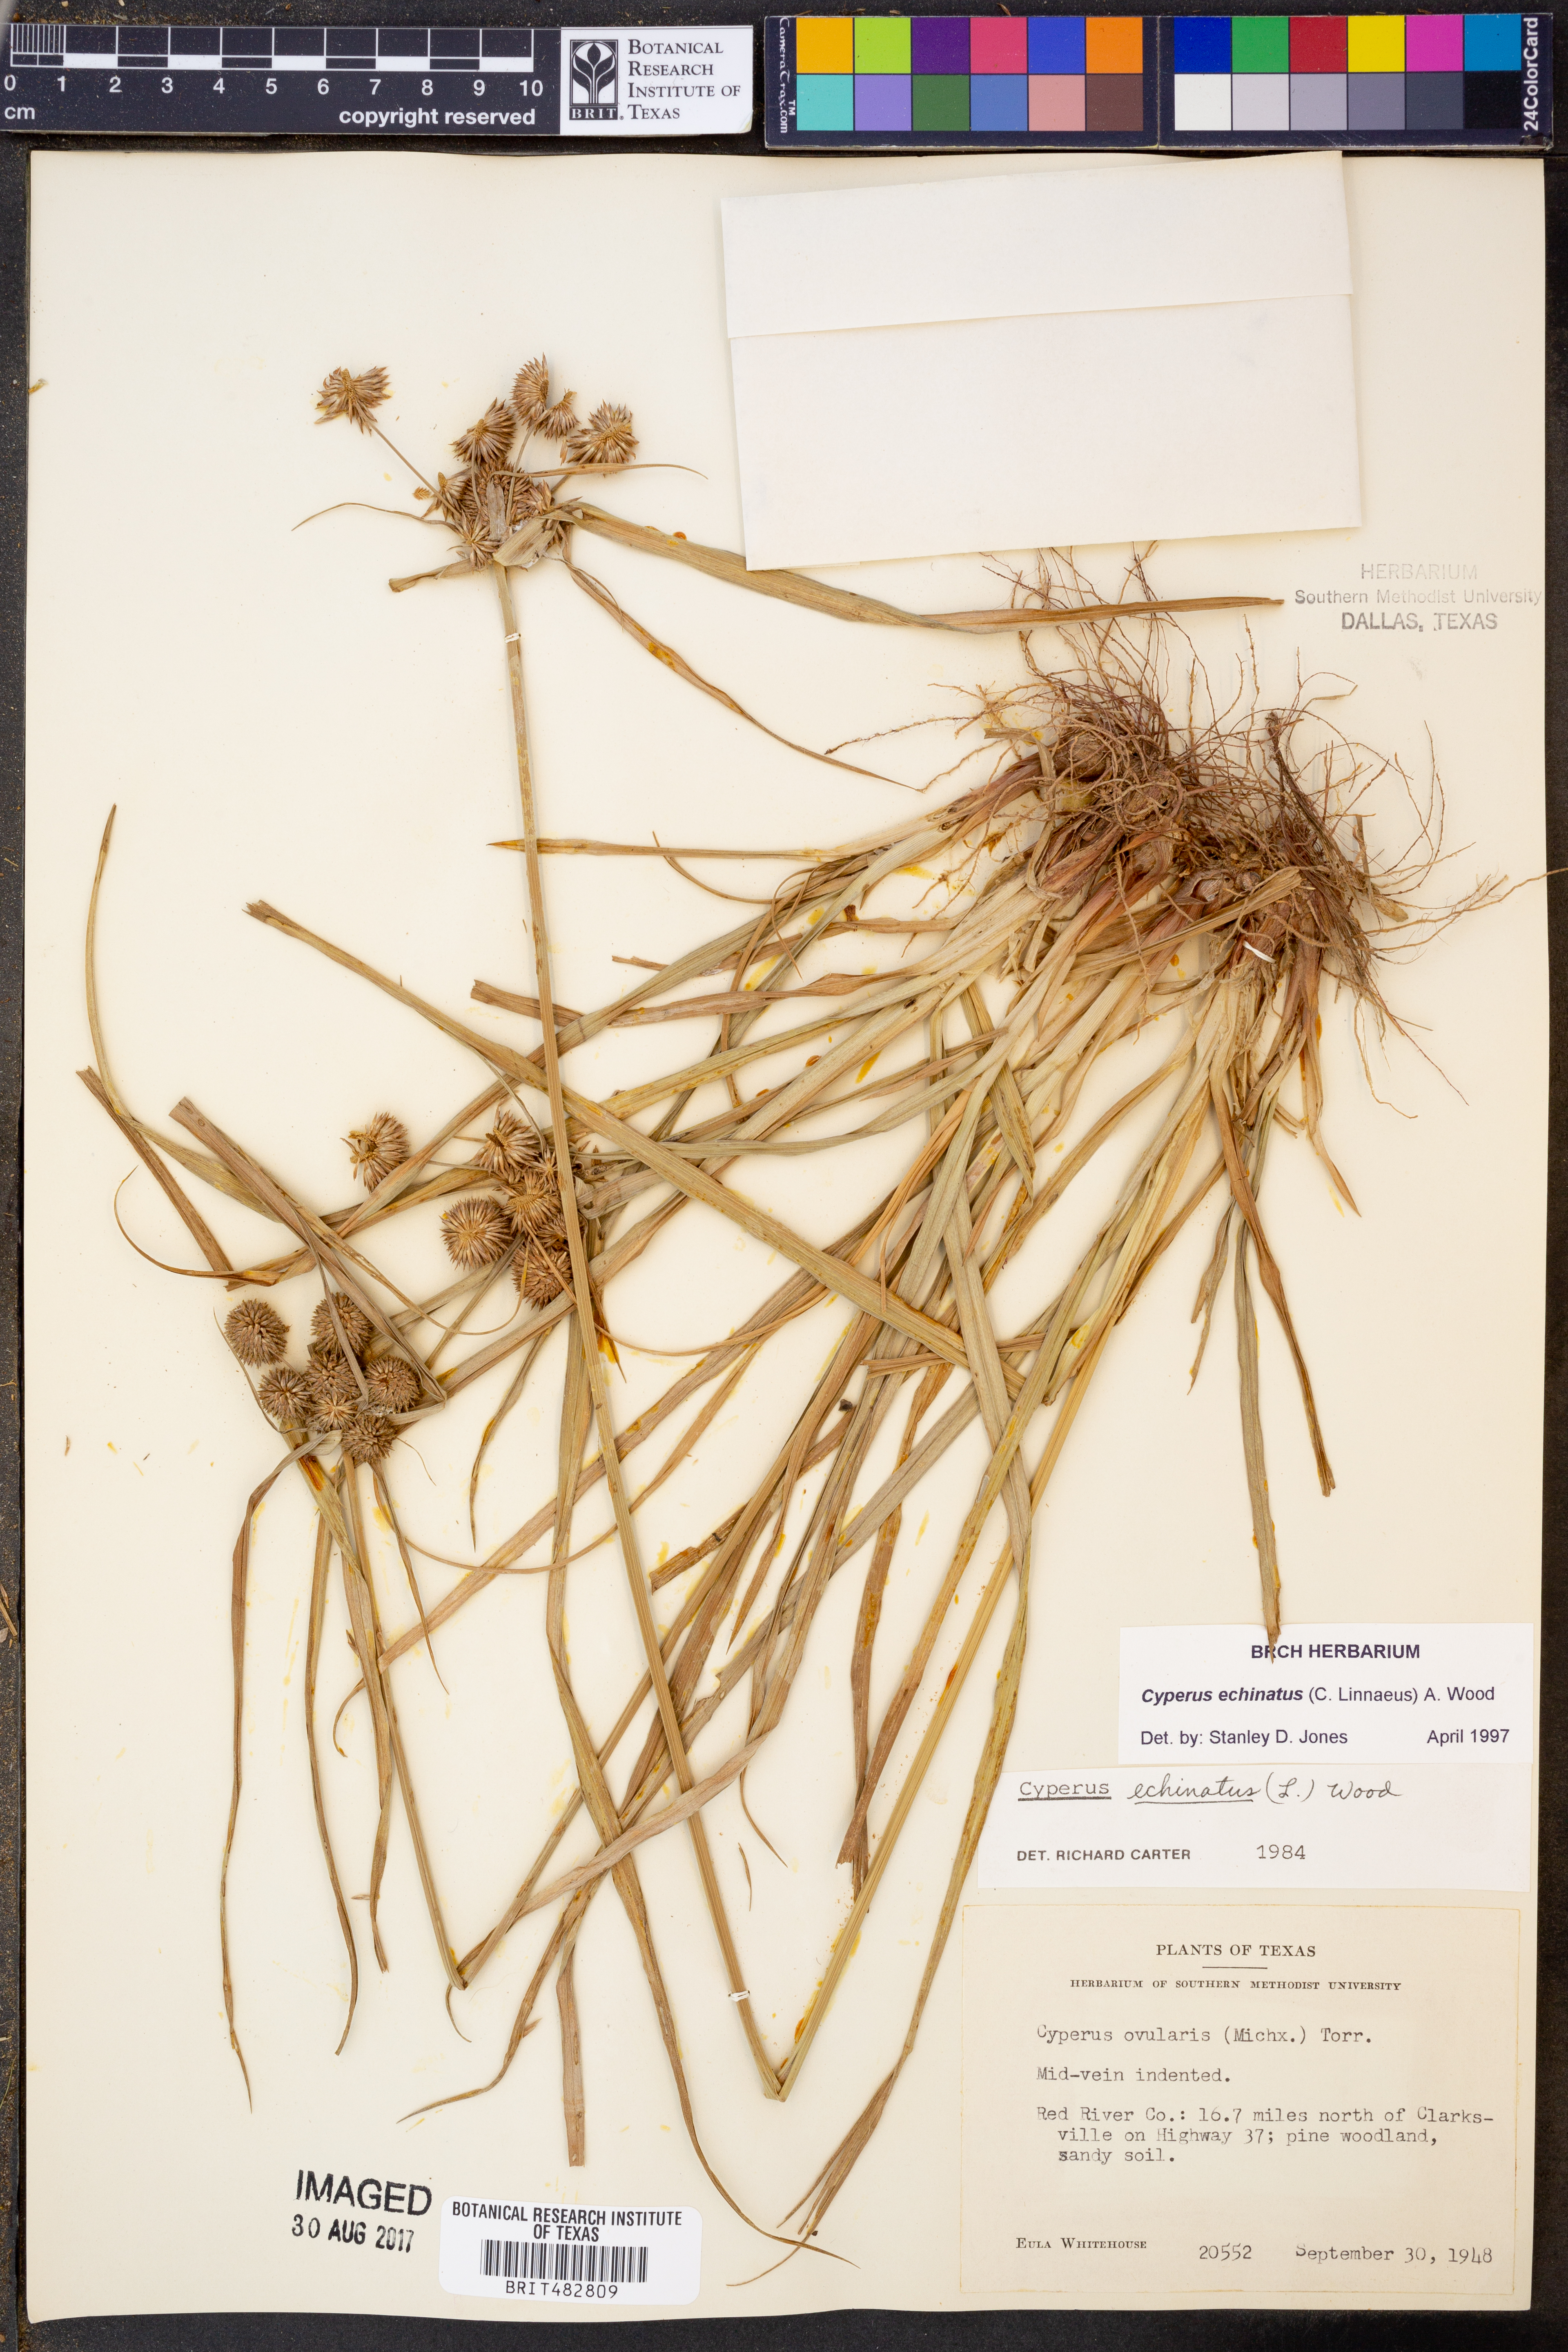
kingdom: Plantae
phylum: Tracheophyta
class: Liliopsida
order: Poales
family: Cyperaceae
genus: Cyperus
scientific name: Cyperus echinatus
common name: Teasel sedge
